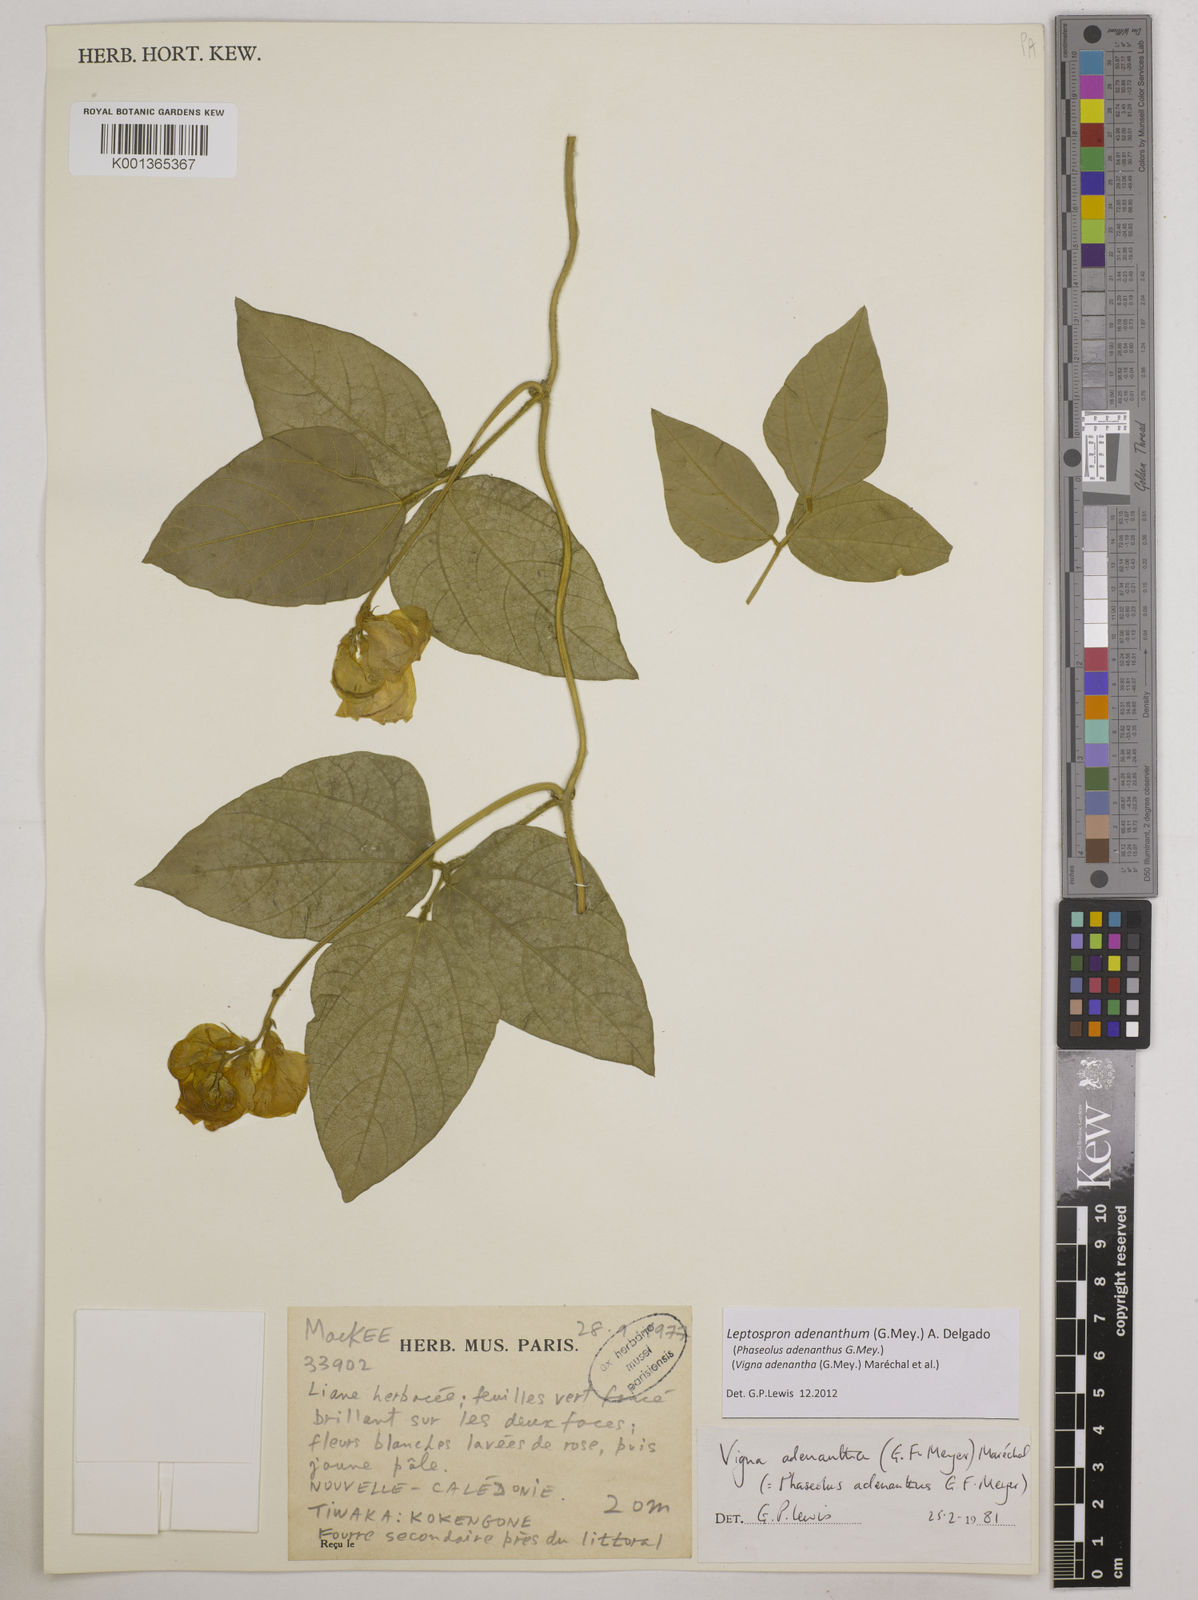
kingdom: Plantae
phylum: Tracheophyta
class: Magnoliopsida
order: Fabales
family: Fabaceae
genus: Leptospron
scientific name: Leptospron adenanthum
